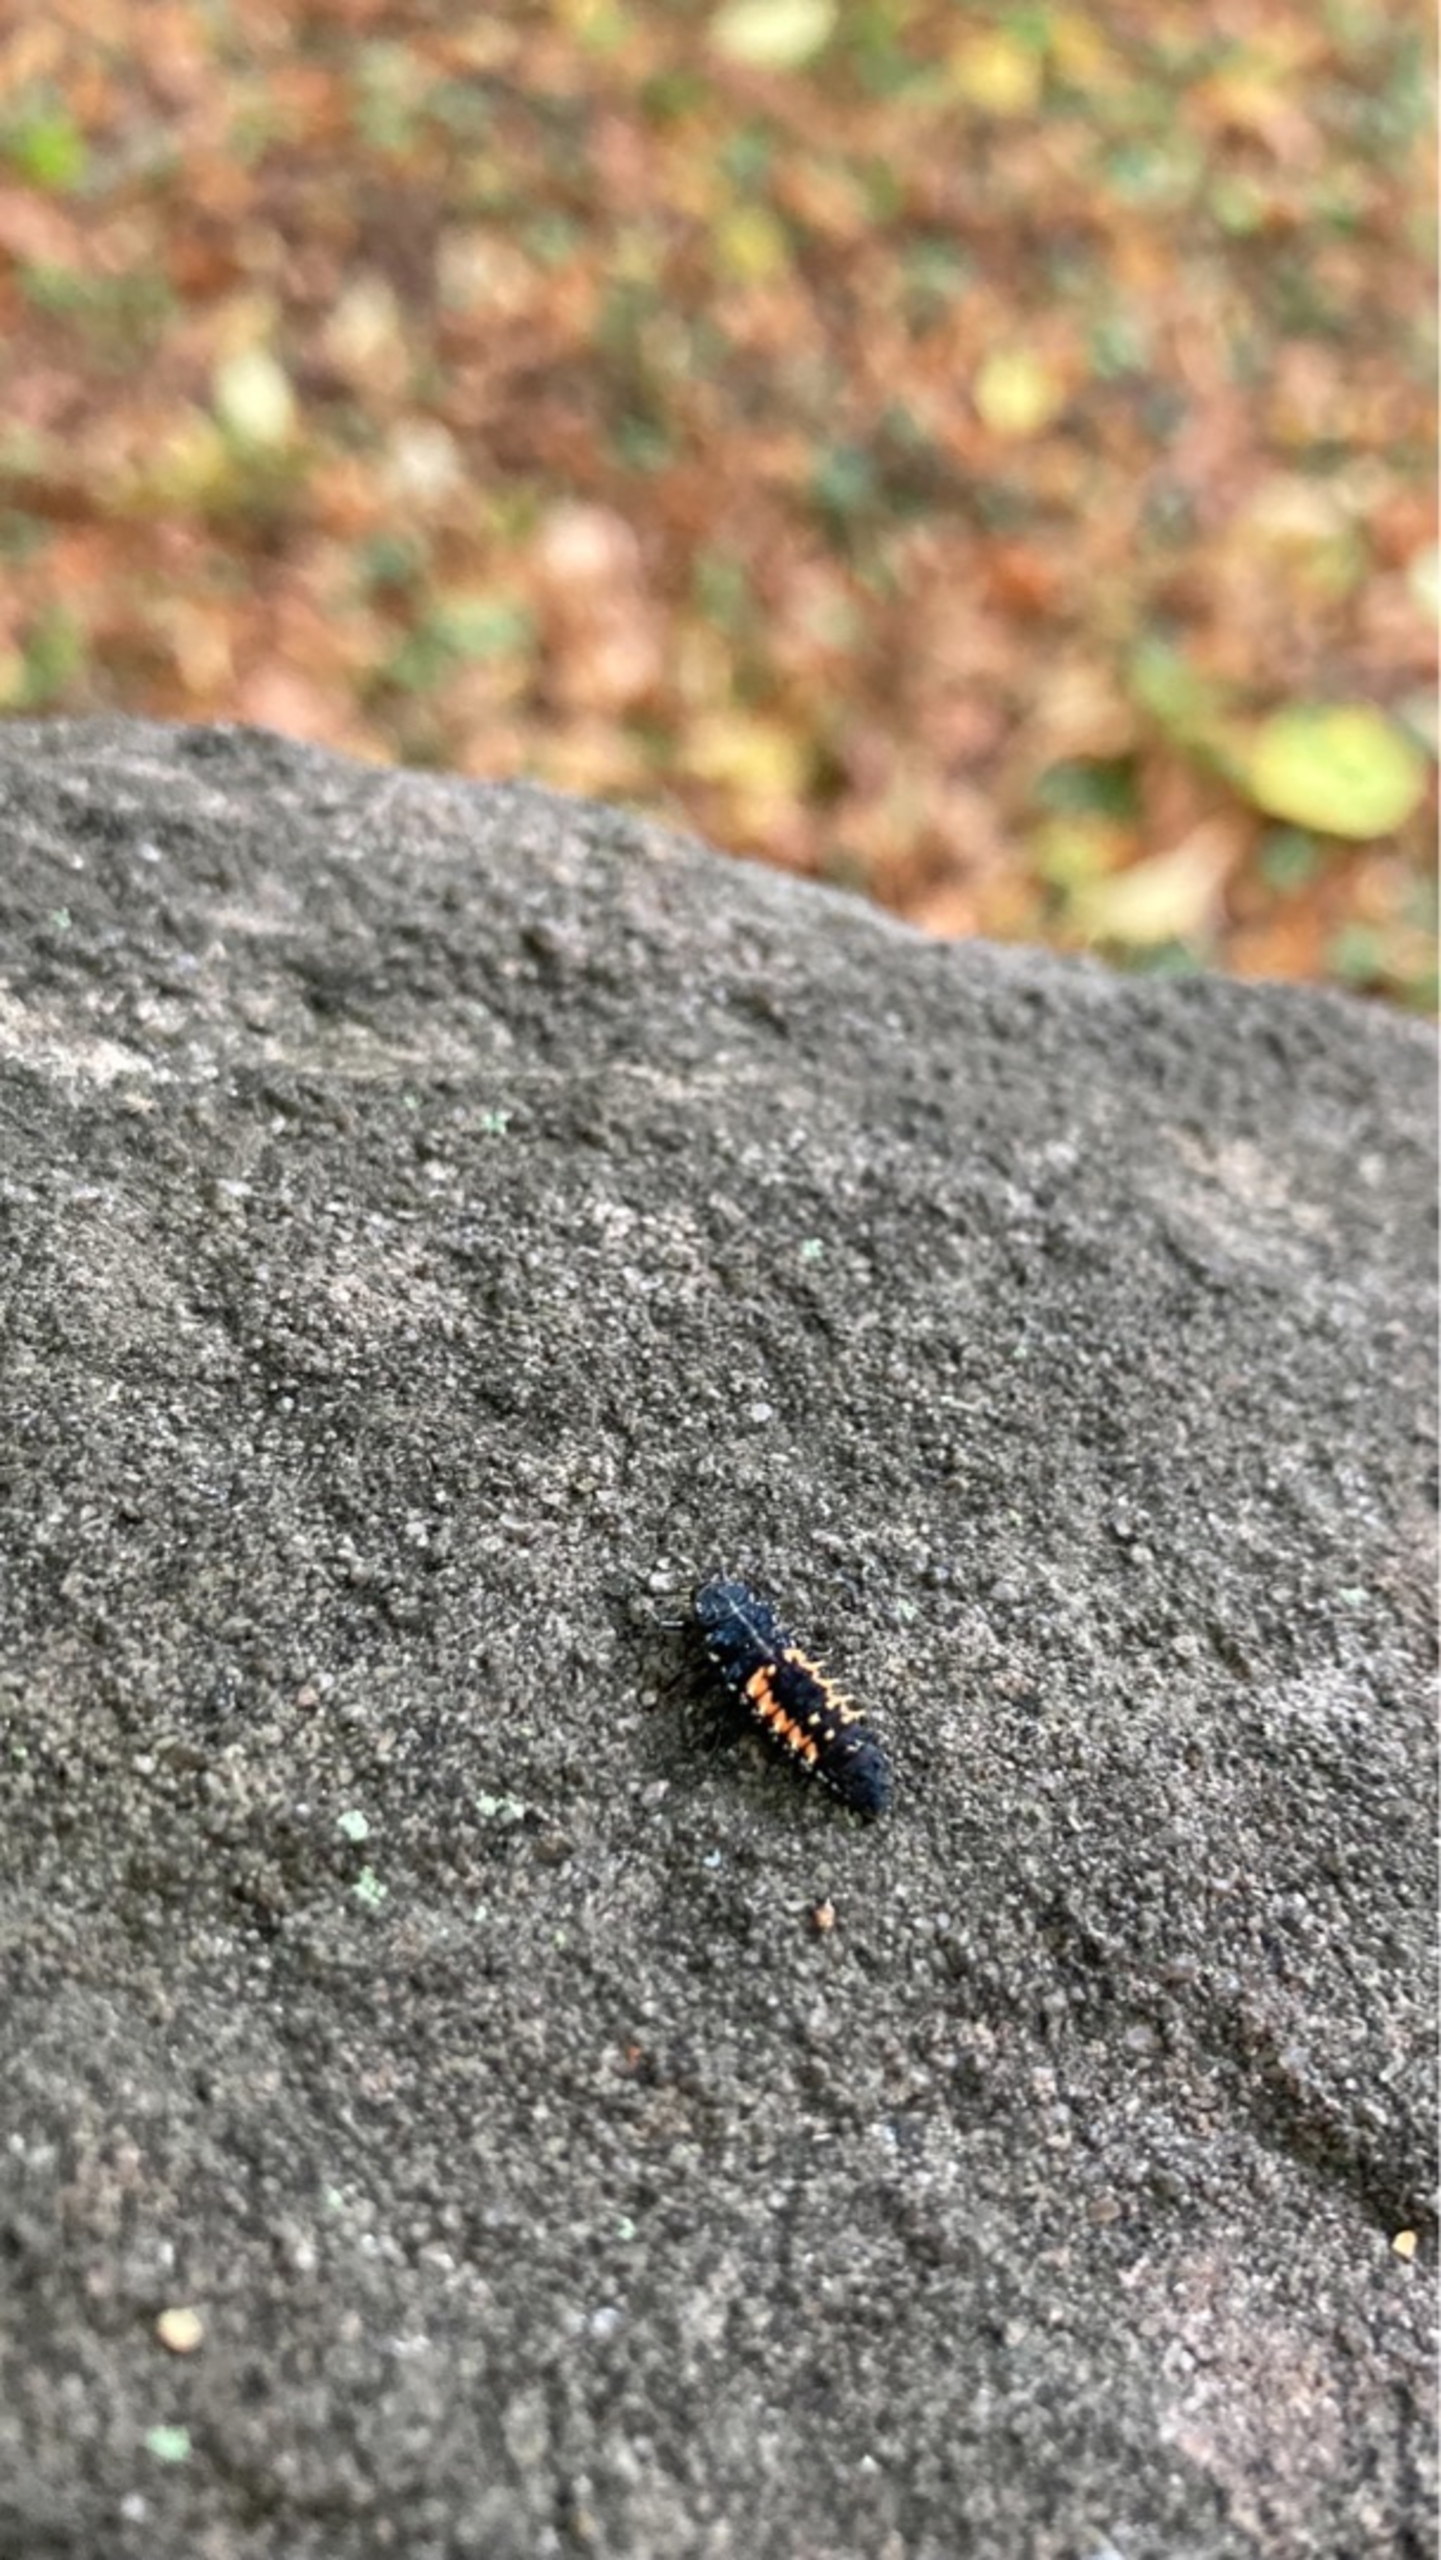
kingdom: Animalia
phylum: Arthropoda
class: Insecta
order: Coleoptera
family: Coccinellidae
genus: Harmonia
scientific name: Harmonia axyridis
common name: Harlekinmariehøne
